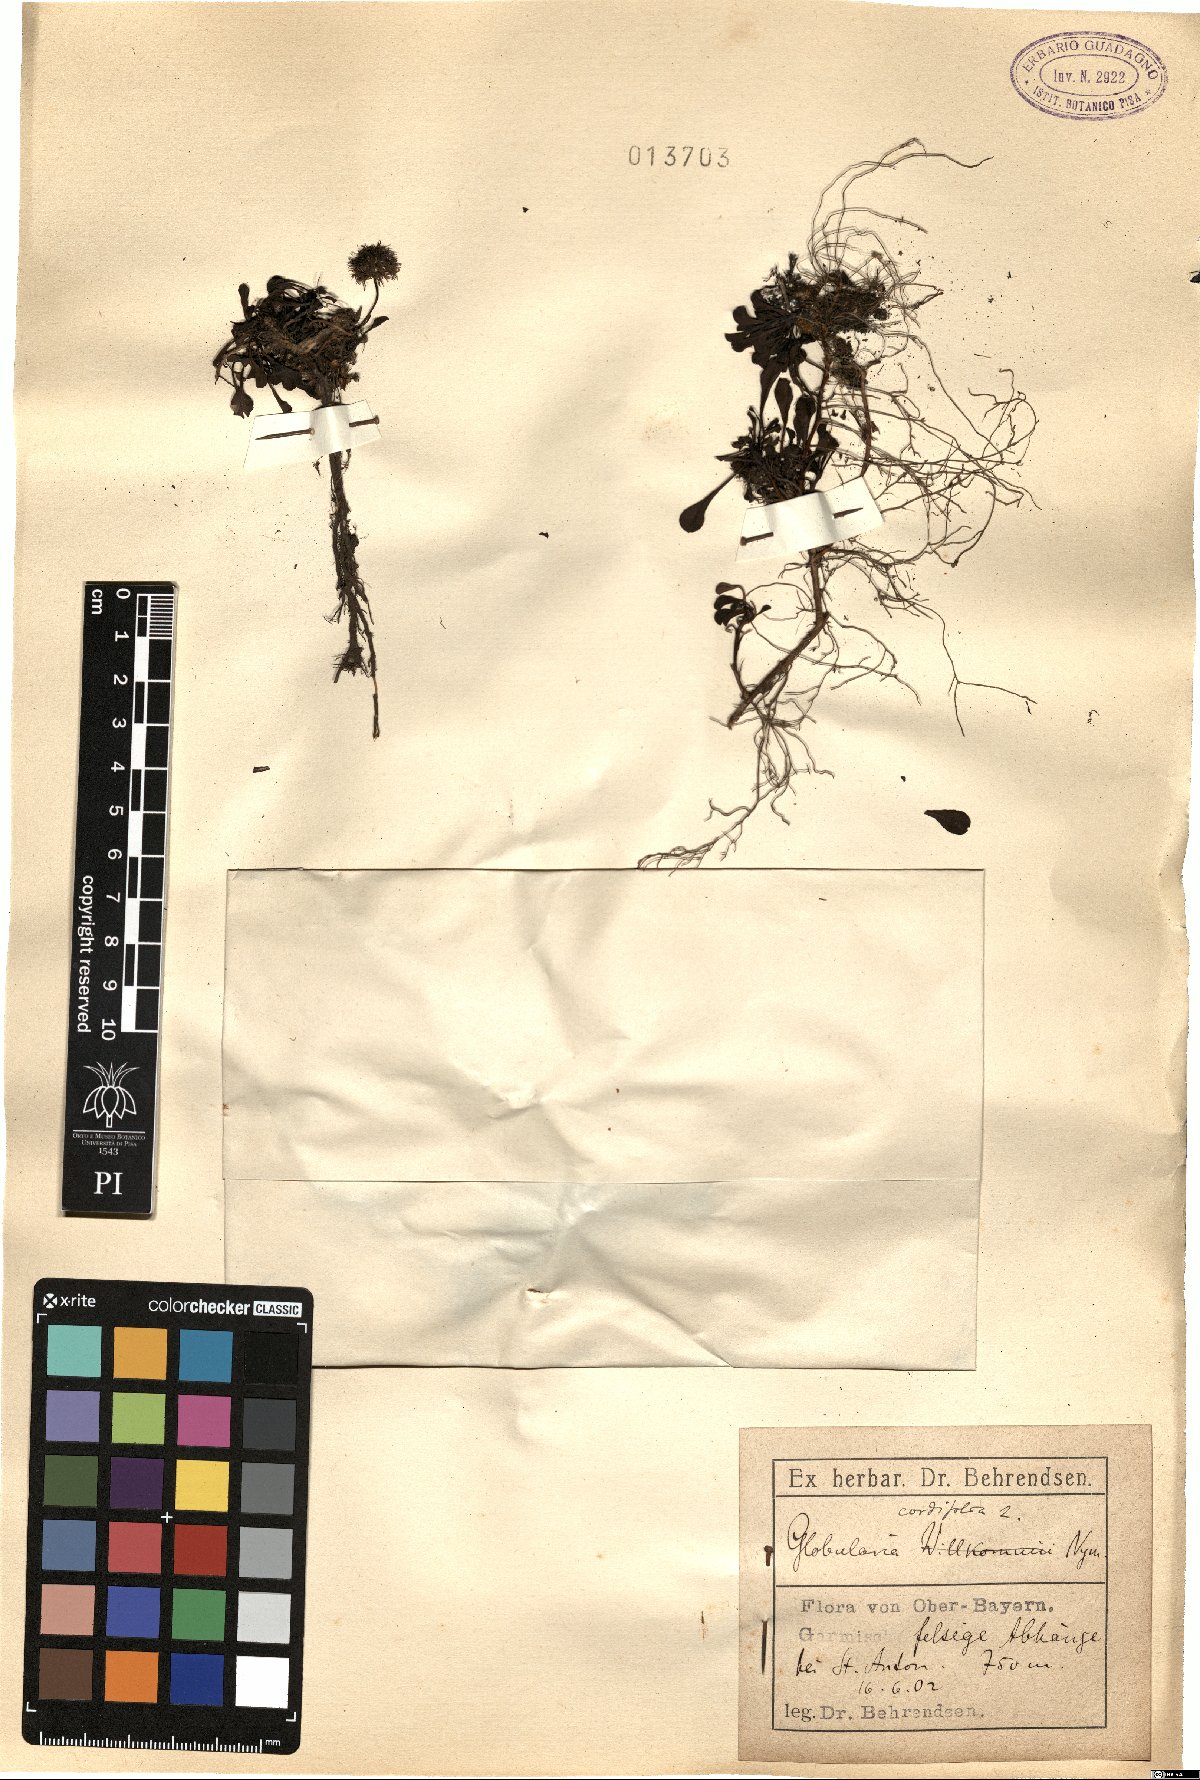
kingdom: Plantae
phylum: Tracheophyta
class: Magnoliopsida
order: Lamiales
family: Plantaginaceae
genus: Globularia
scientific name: Globularia cordifolia
